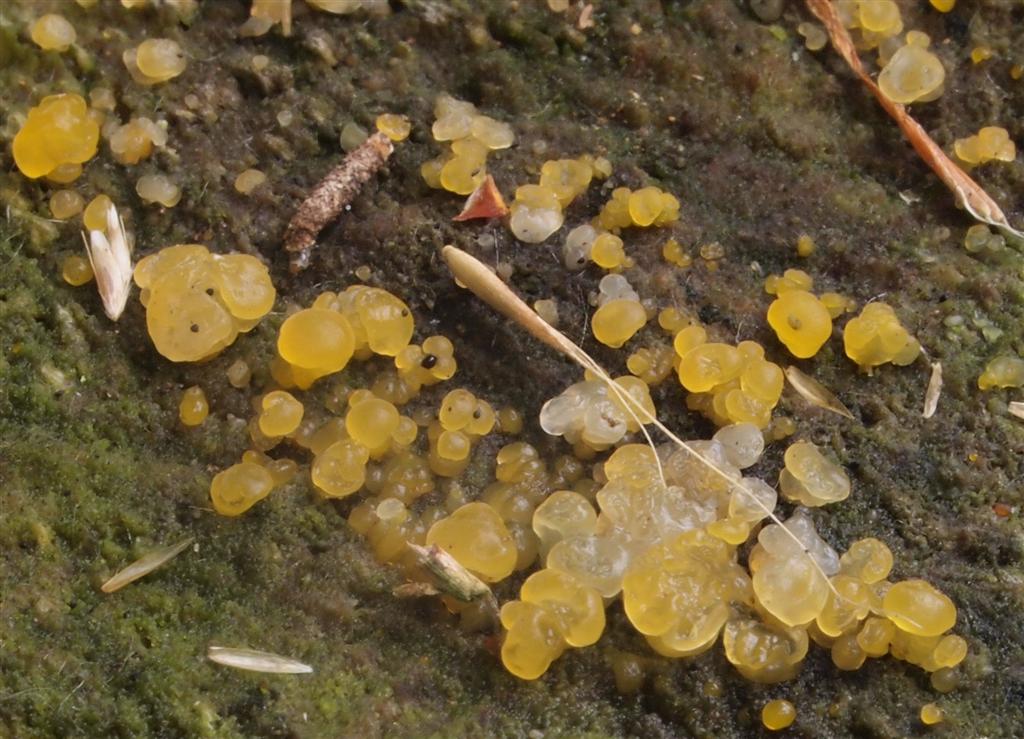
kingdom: Fungi
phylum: Basidiomycota
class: Dacrymycetes
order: Dacrymycetales
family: Dacrymycetaceae
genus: Dacrymyces
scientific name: Dacrymyces lacrymalis
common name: rynket tåresvamp
